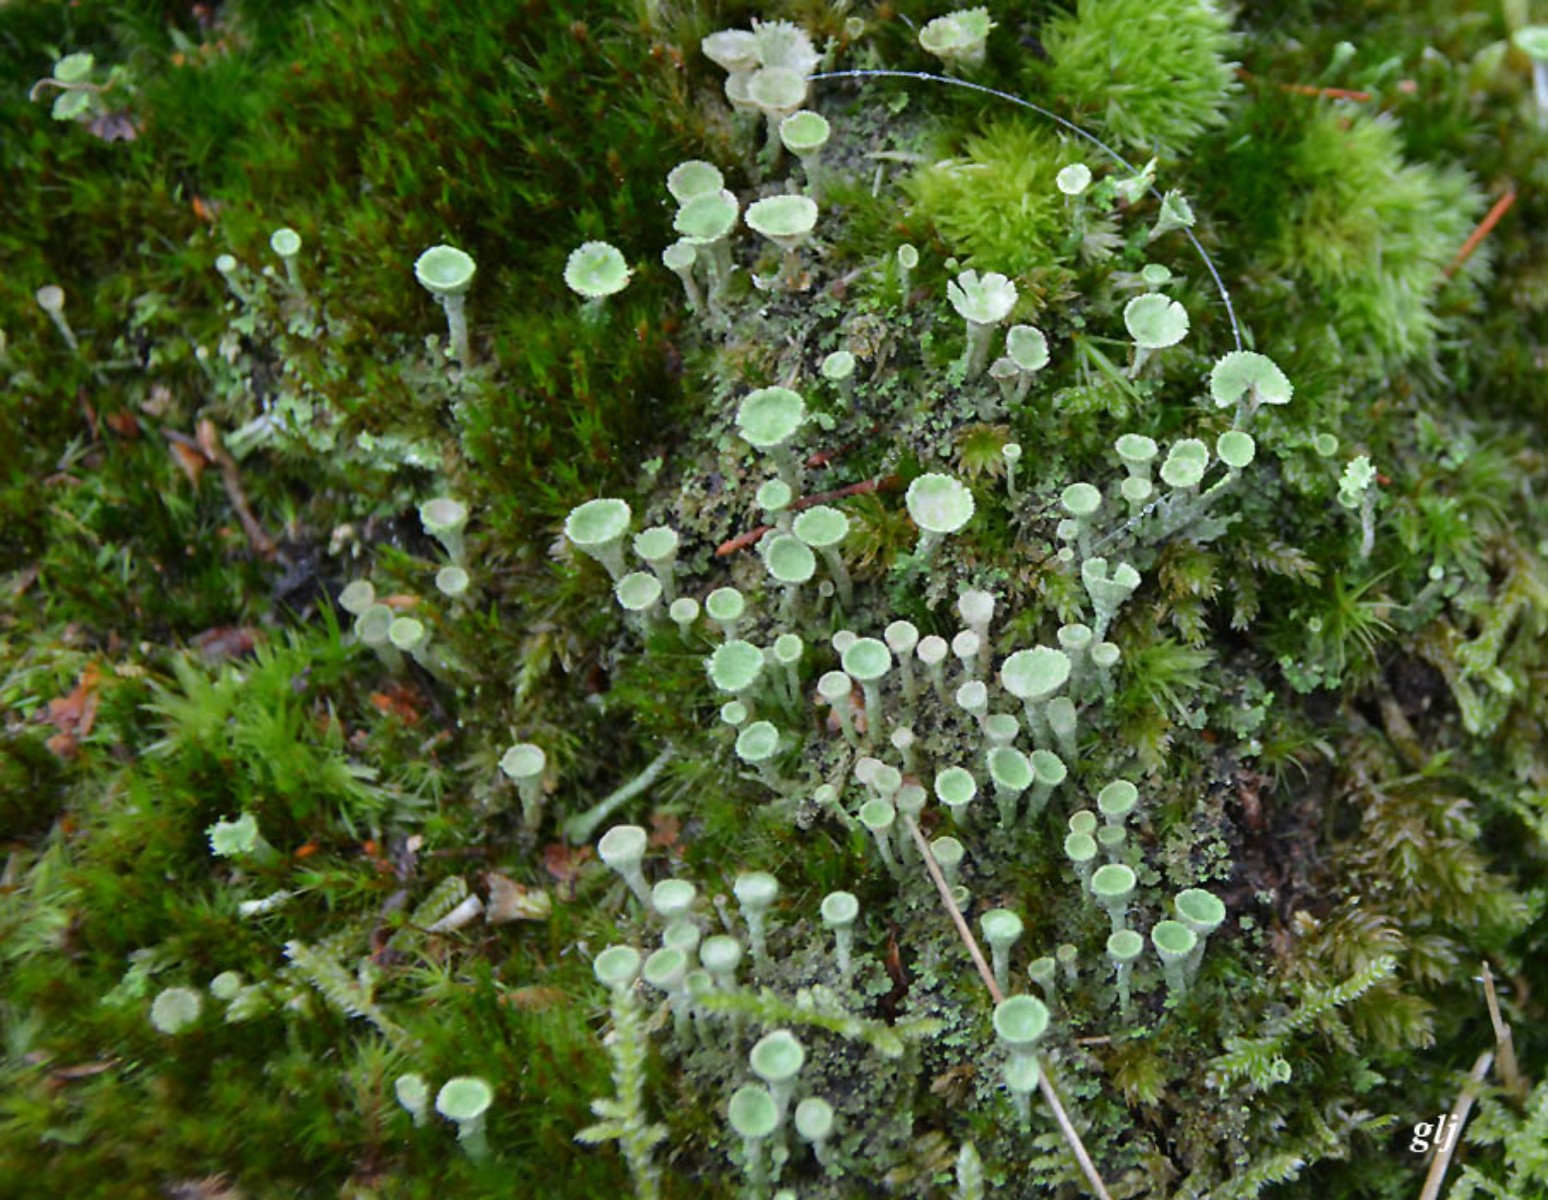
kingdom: Fungi
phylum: Ascomycota
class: Lecanoromycetes
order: Lecanorales
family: Cladoniaceae
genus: Cladonia
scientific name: Cladonia fimbriata
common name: bleggrøn bægerlav
